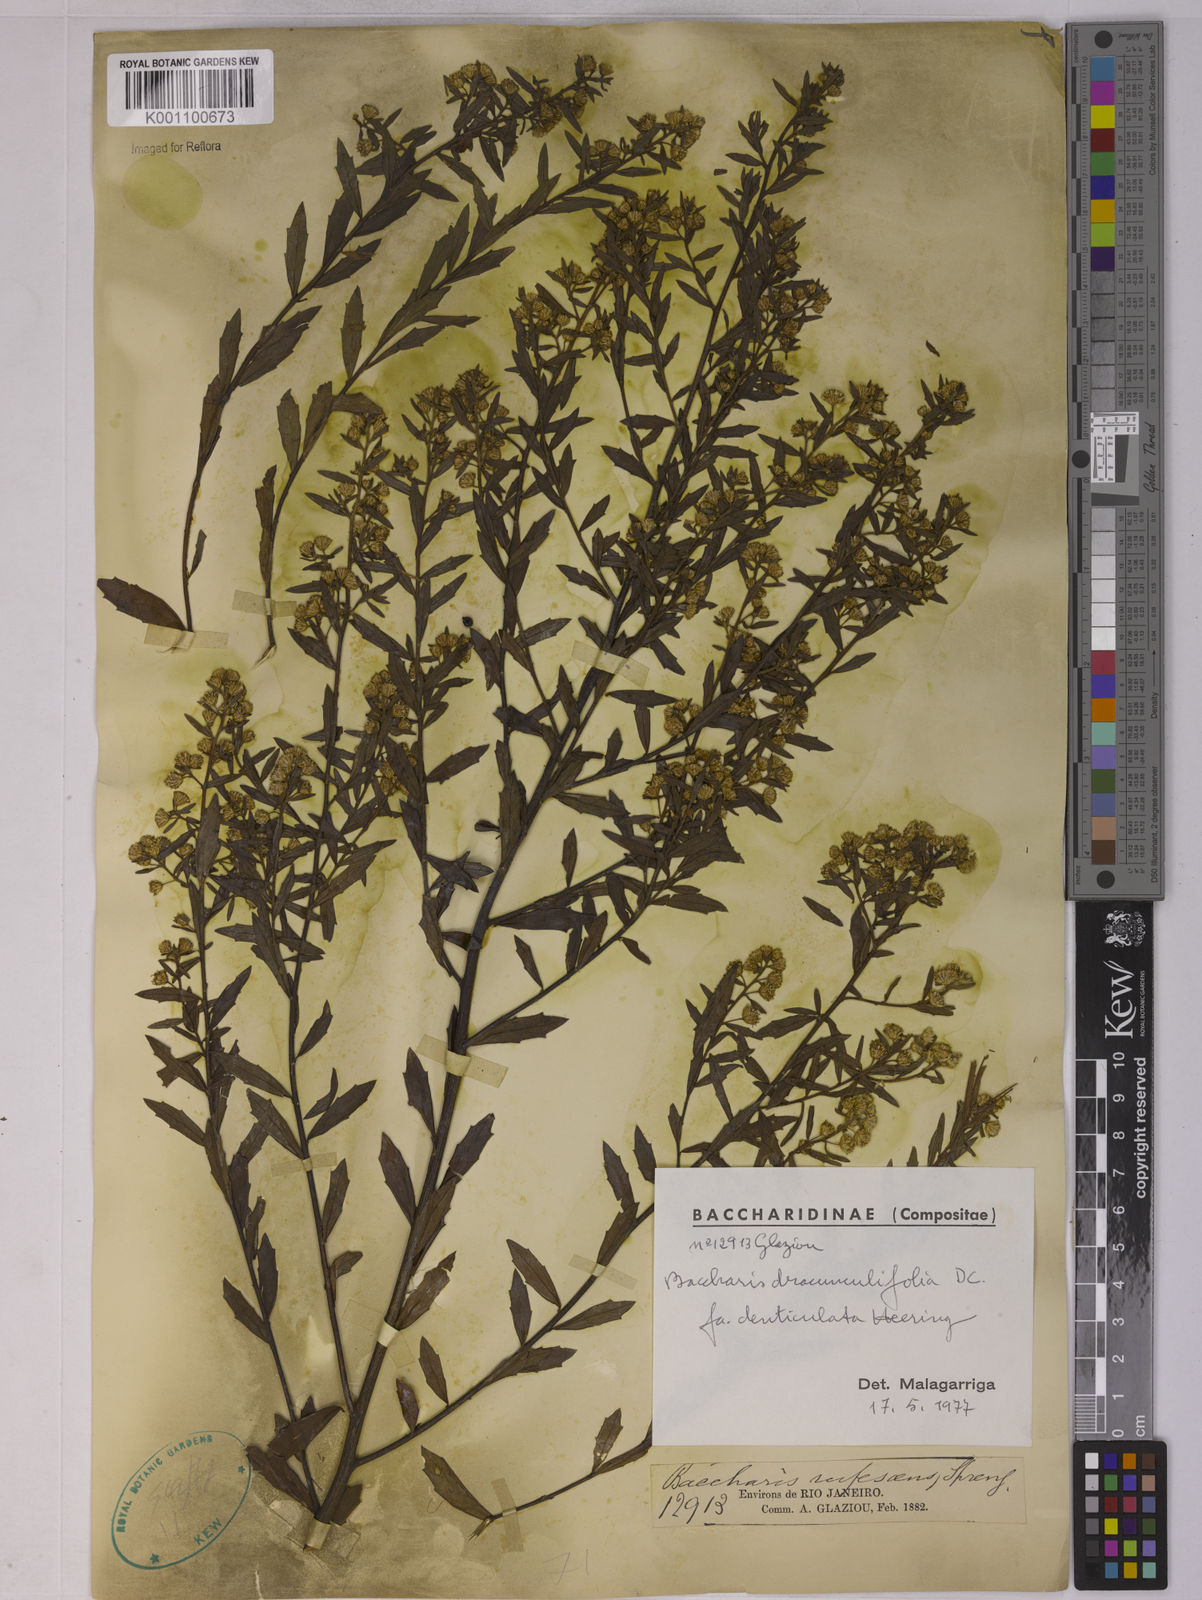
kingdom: Plantae
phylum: Tracheophyta
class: Magnoliopsida
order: Asterales
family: Asteraceae
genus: Baccharis
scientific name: Baccharis dracunculifolia
